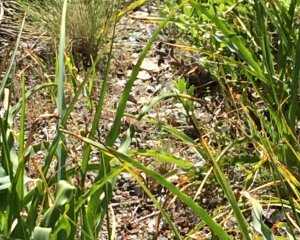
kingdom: Animalia
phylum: Arthropoda
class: Insecta
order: Lepidoptera
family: Hesperiidae
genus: Hylephila
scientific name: Hylephila phyleus
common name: Fiery Skipper
